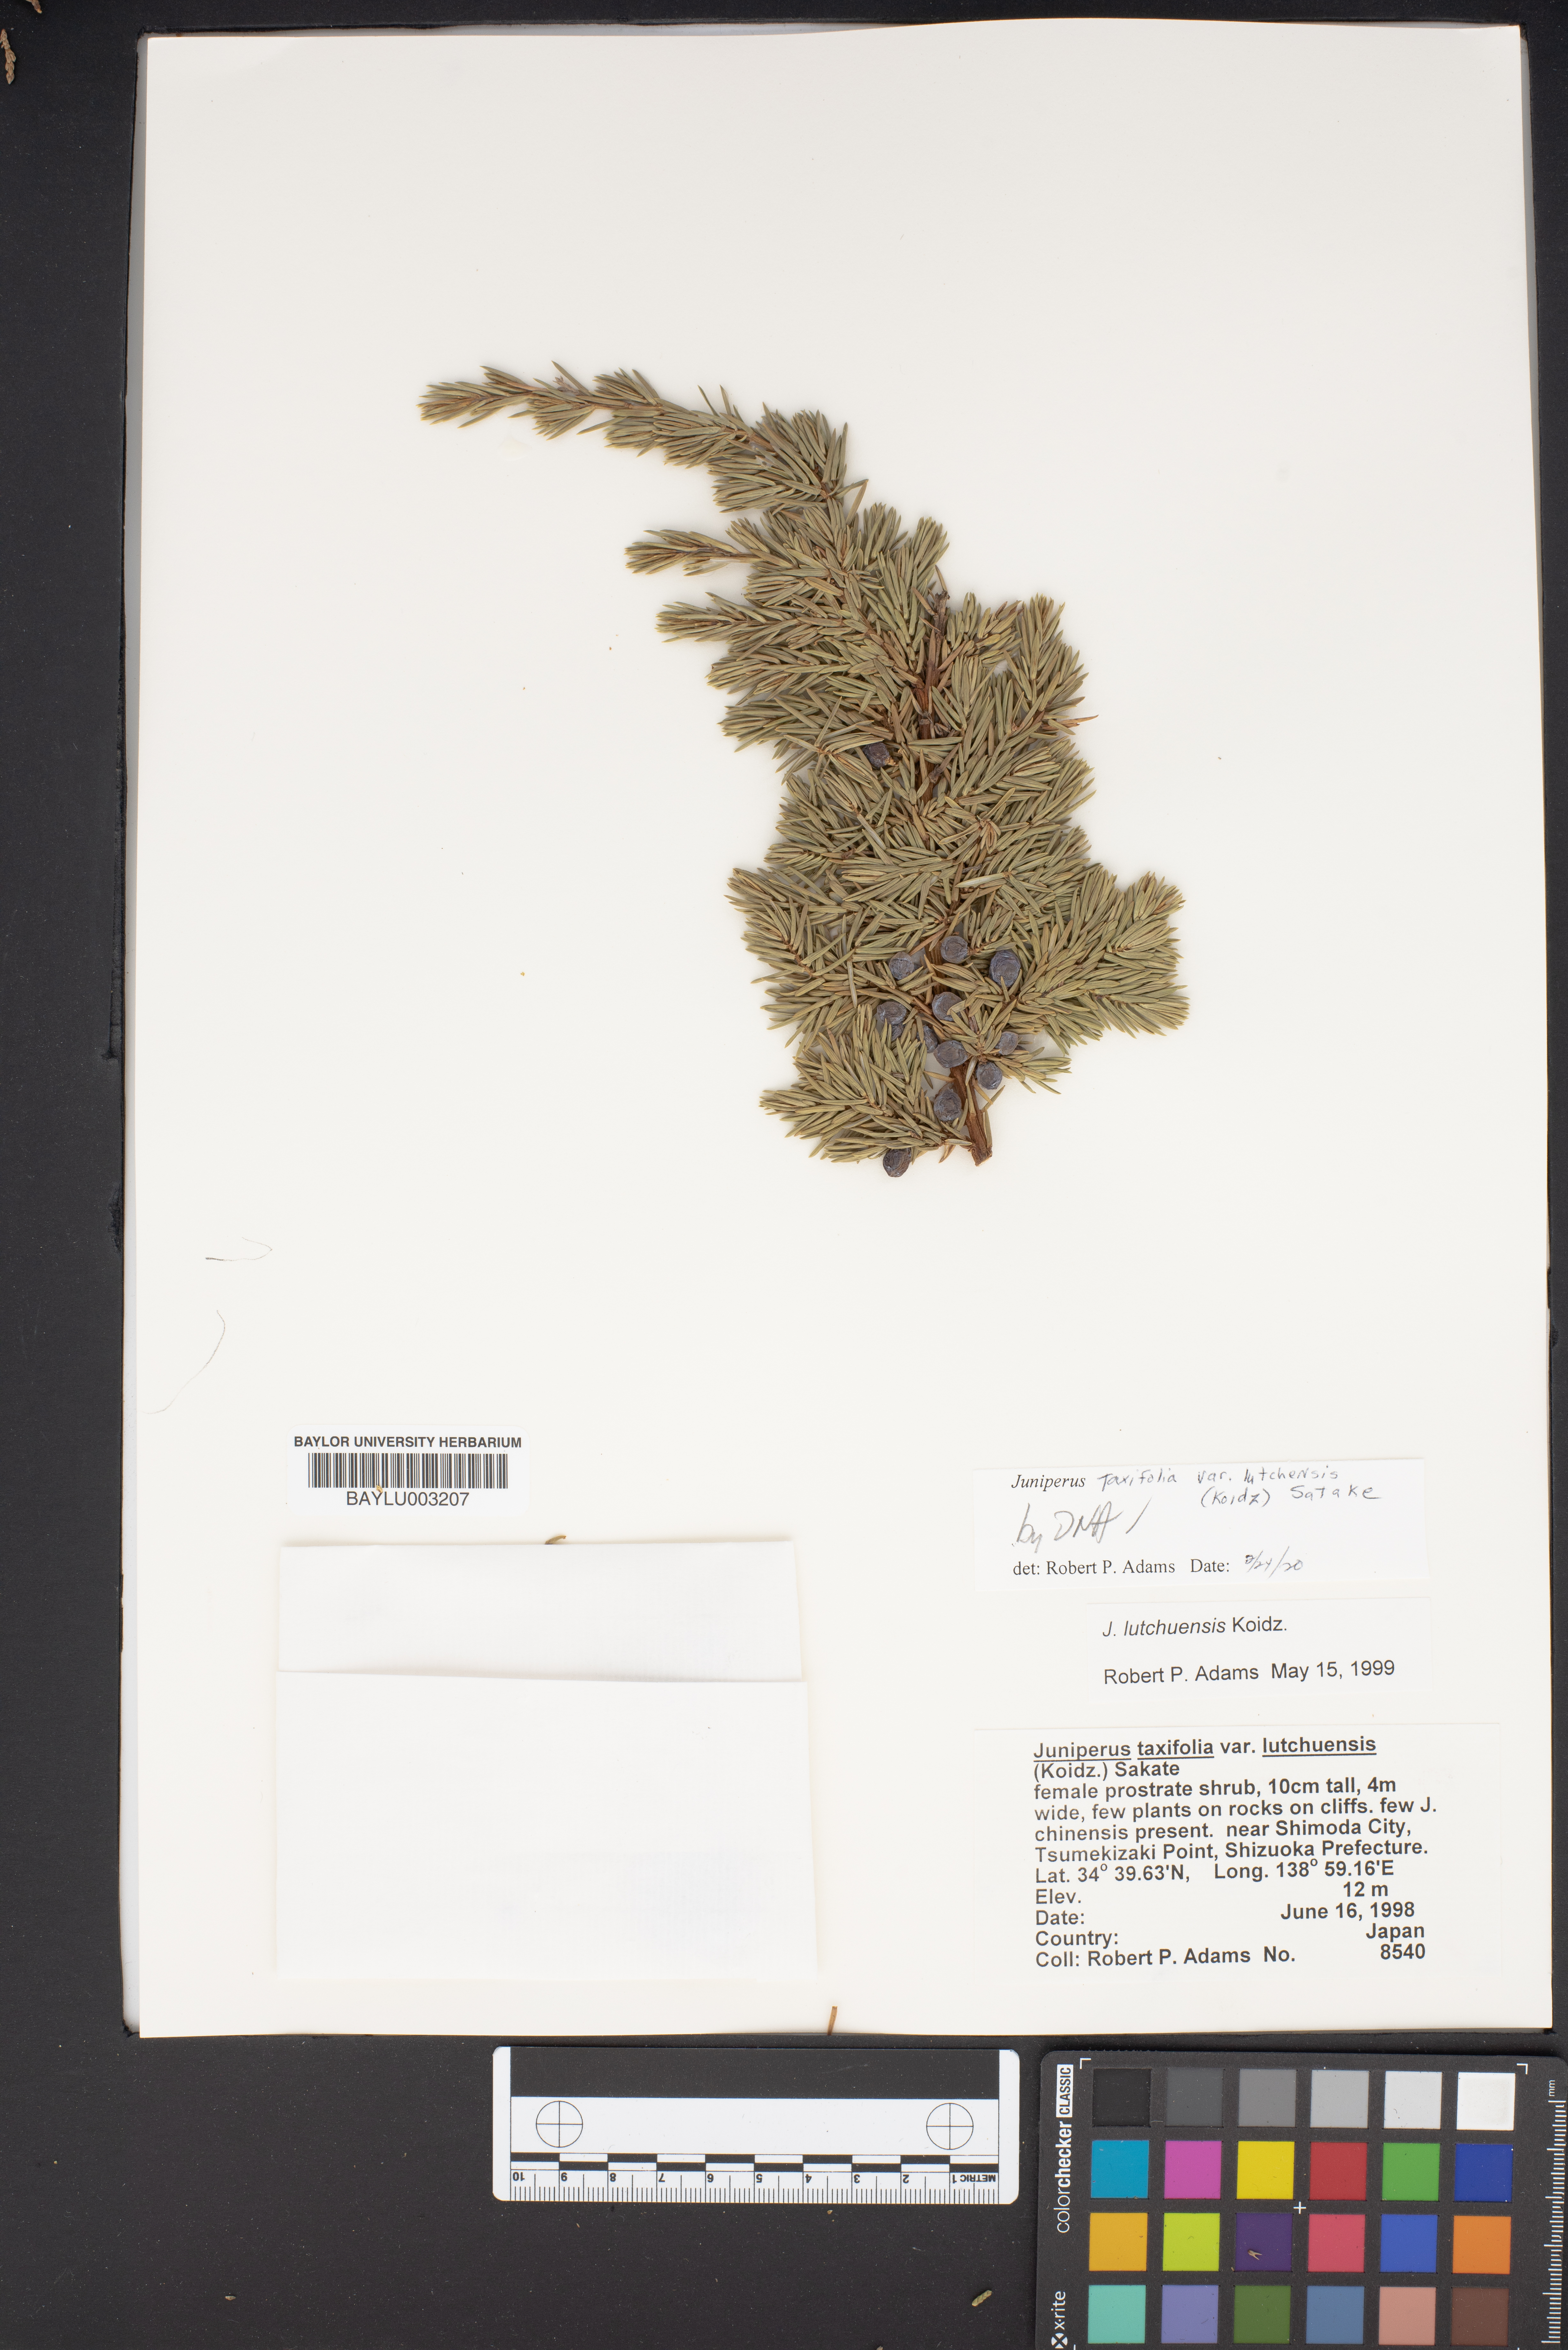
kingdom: Plantae
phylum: Tracheophyta
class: Pinopsida
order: Pinales
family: Cupressaceae
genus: Juniperus
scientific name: Juniperus taxifolia
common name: Fitcheisi
